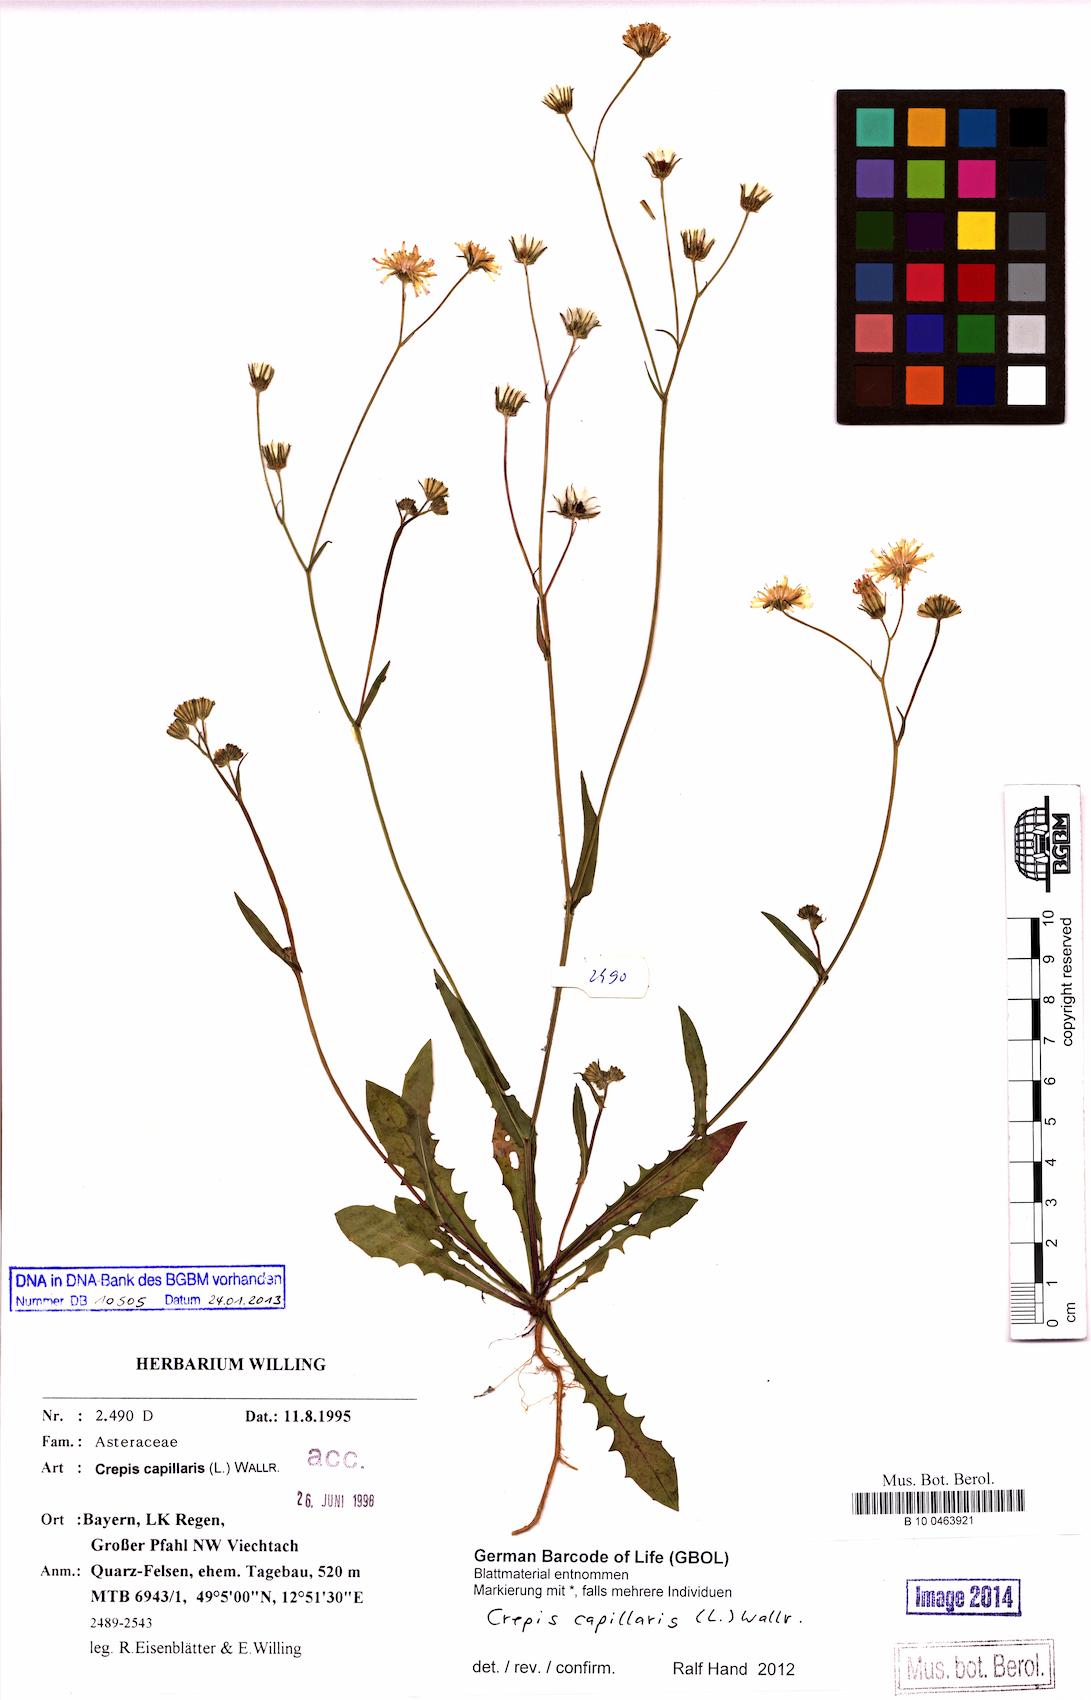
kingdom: Plantae
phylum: Tracheophyta
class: Magnoliopsida
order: Asterales
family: Asteraceae
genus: Crepis
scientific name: Crepis capillaris
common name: Smooth hawksbeard
